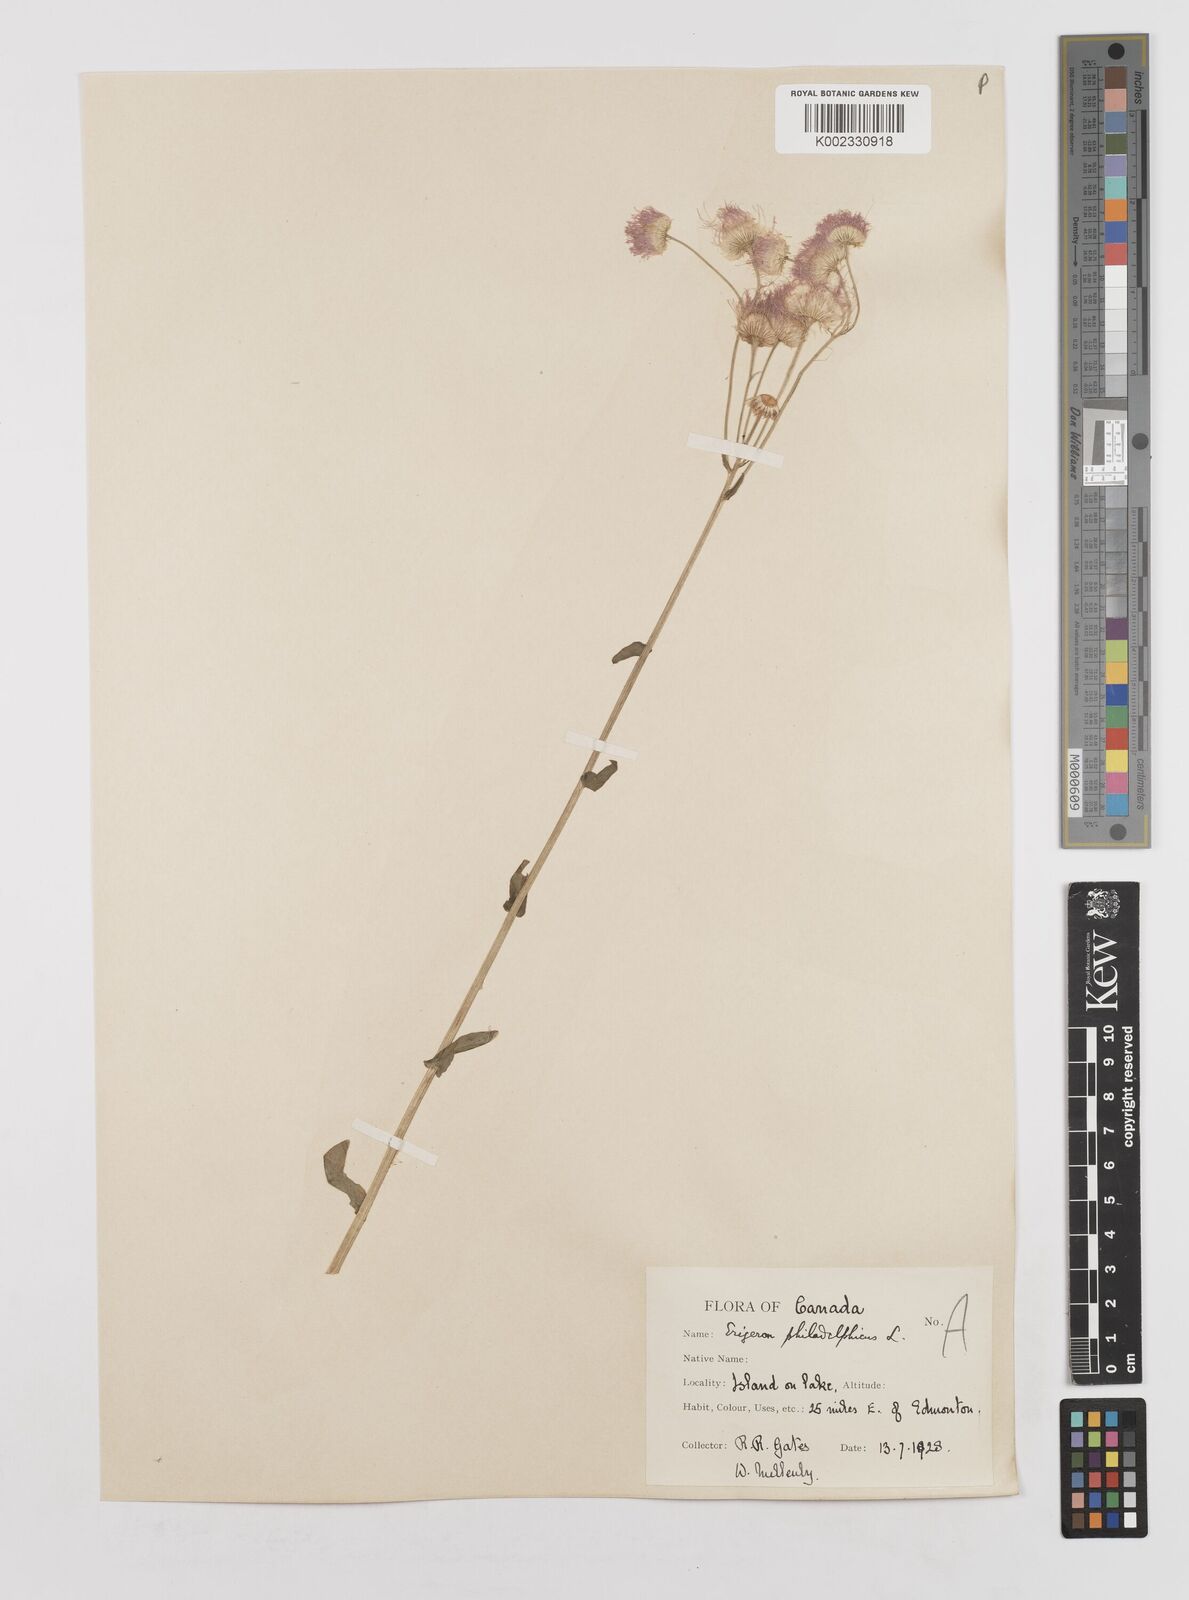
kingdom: Plantae
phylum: Tracheophyta
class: Magnoliopsida
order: Asterales
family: Asteraceae
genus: Erigeron
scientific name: Erigeron philadelphicus
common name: Robin's-plantain
